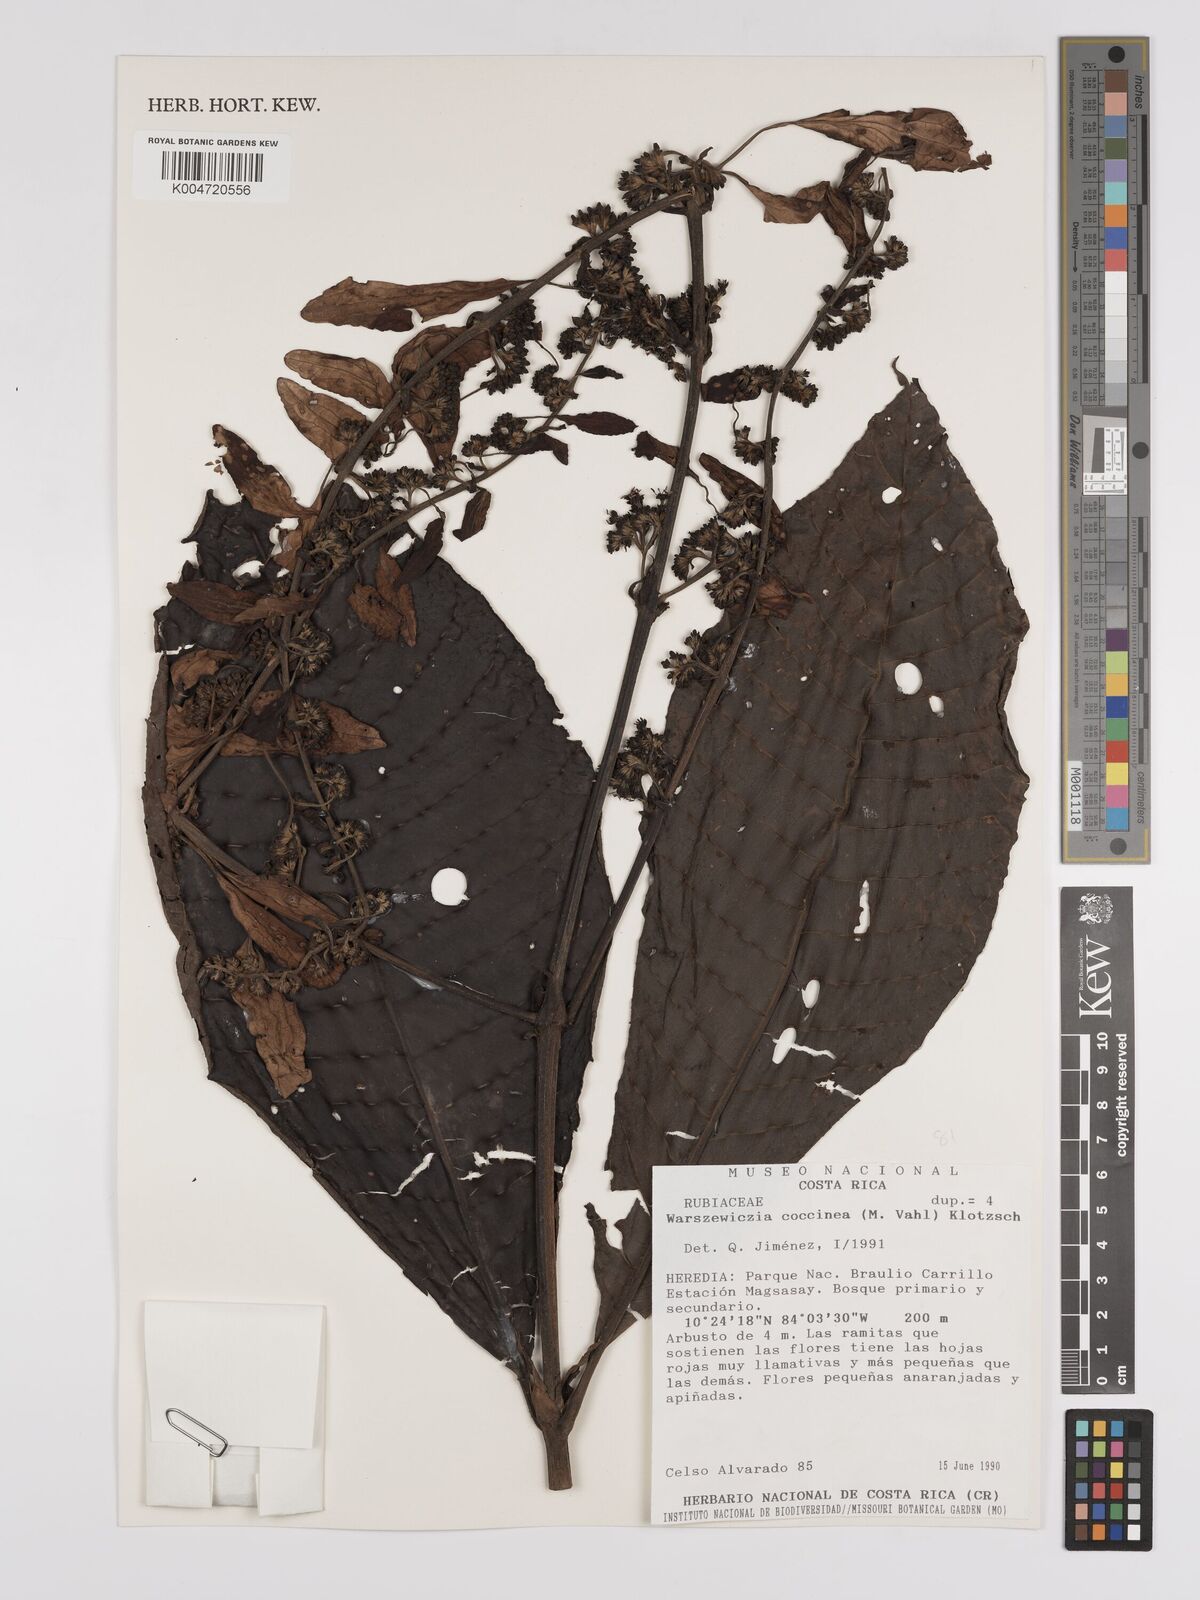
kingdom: Plantae
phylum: Tracheophyta
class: Magnoliopsida
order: Gentianales
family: Rubiaceae
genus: Warszewiczia
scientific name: Warszewiczia coccinea
